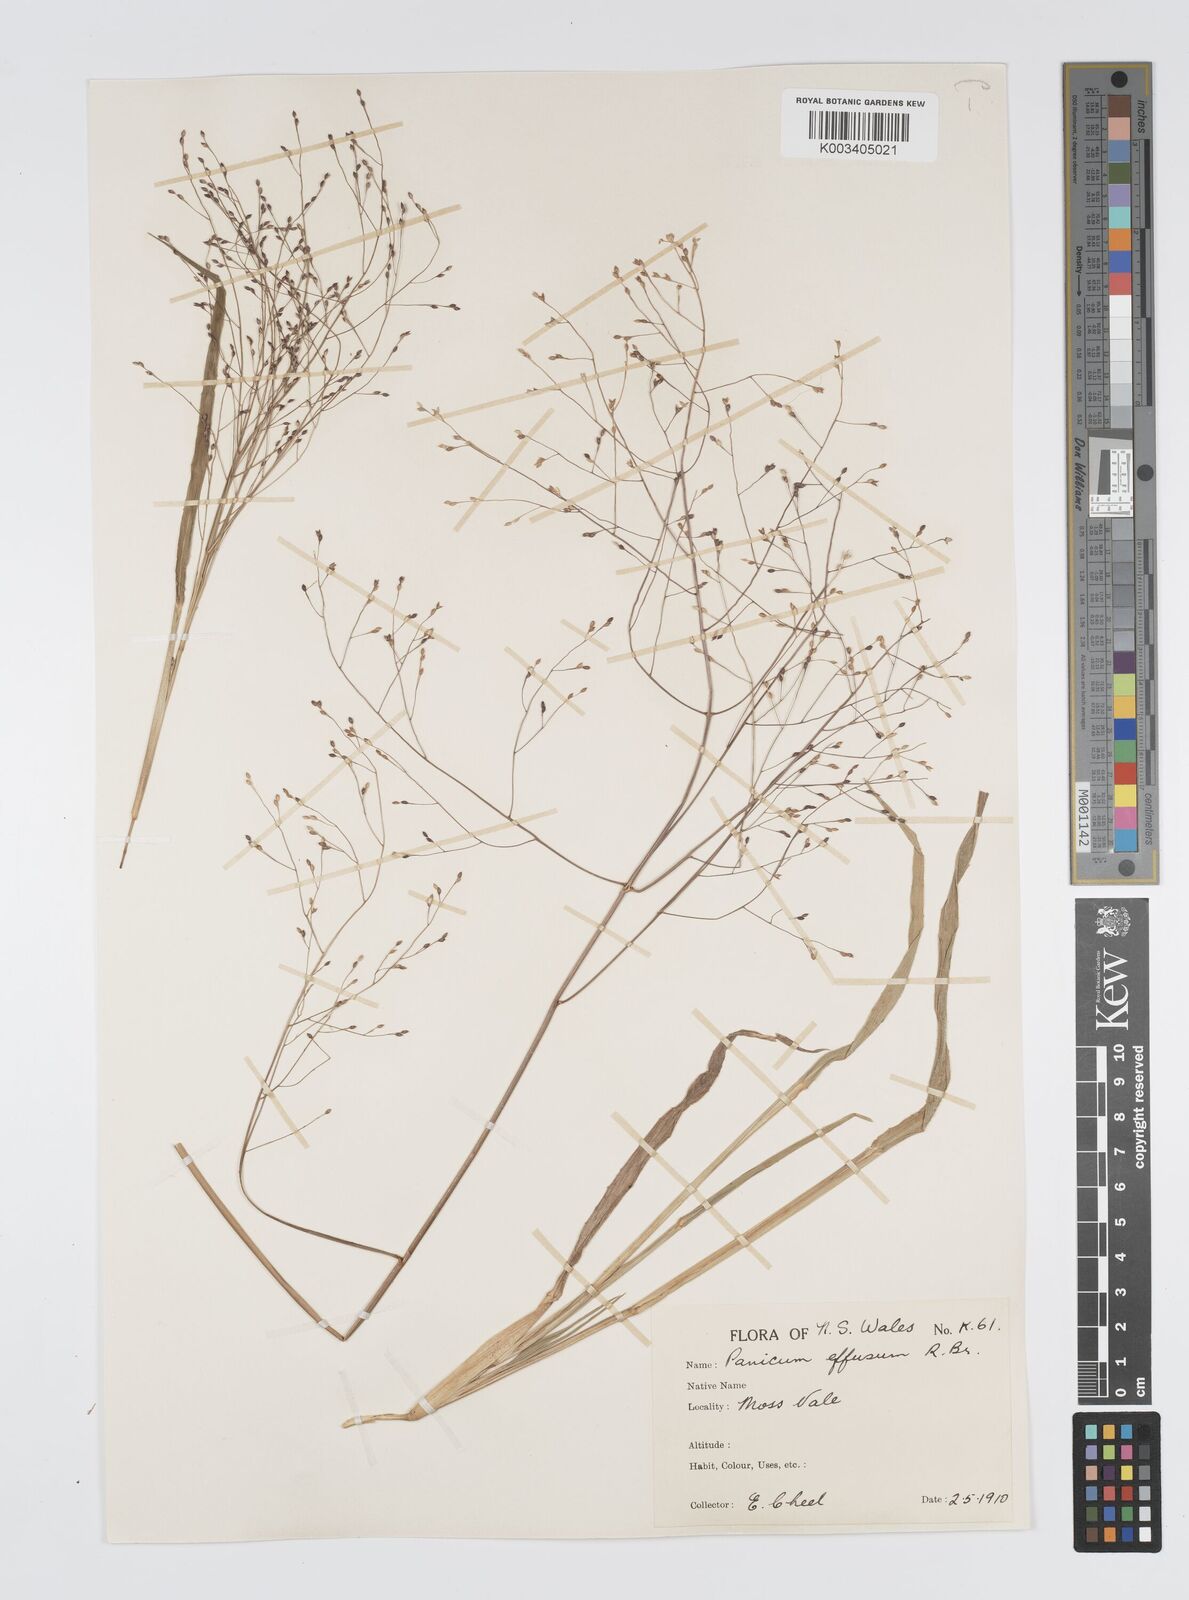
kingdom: Plantae
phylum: Tracheophyta
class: Liliopsida
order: Poales
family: Poaceae
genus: Panicum
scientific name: Panicum effusum
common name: Hairy panic grass
